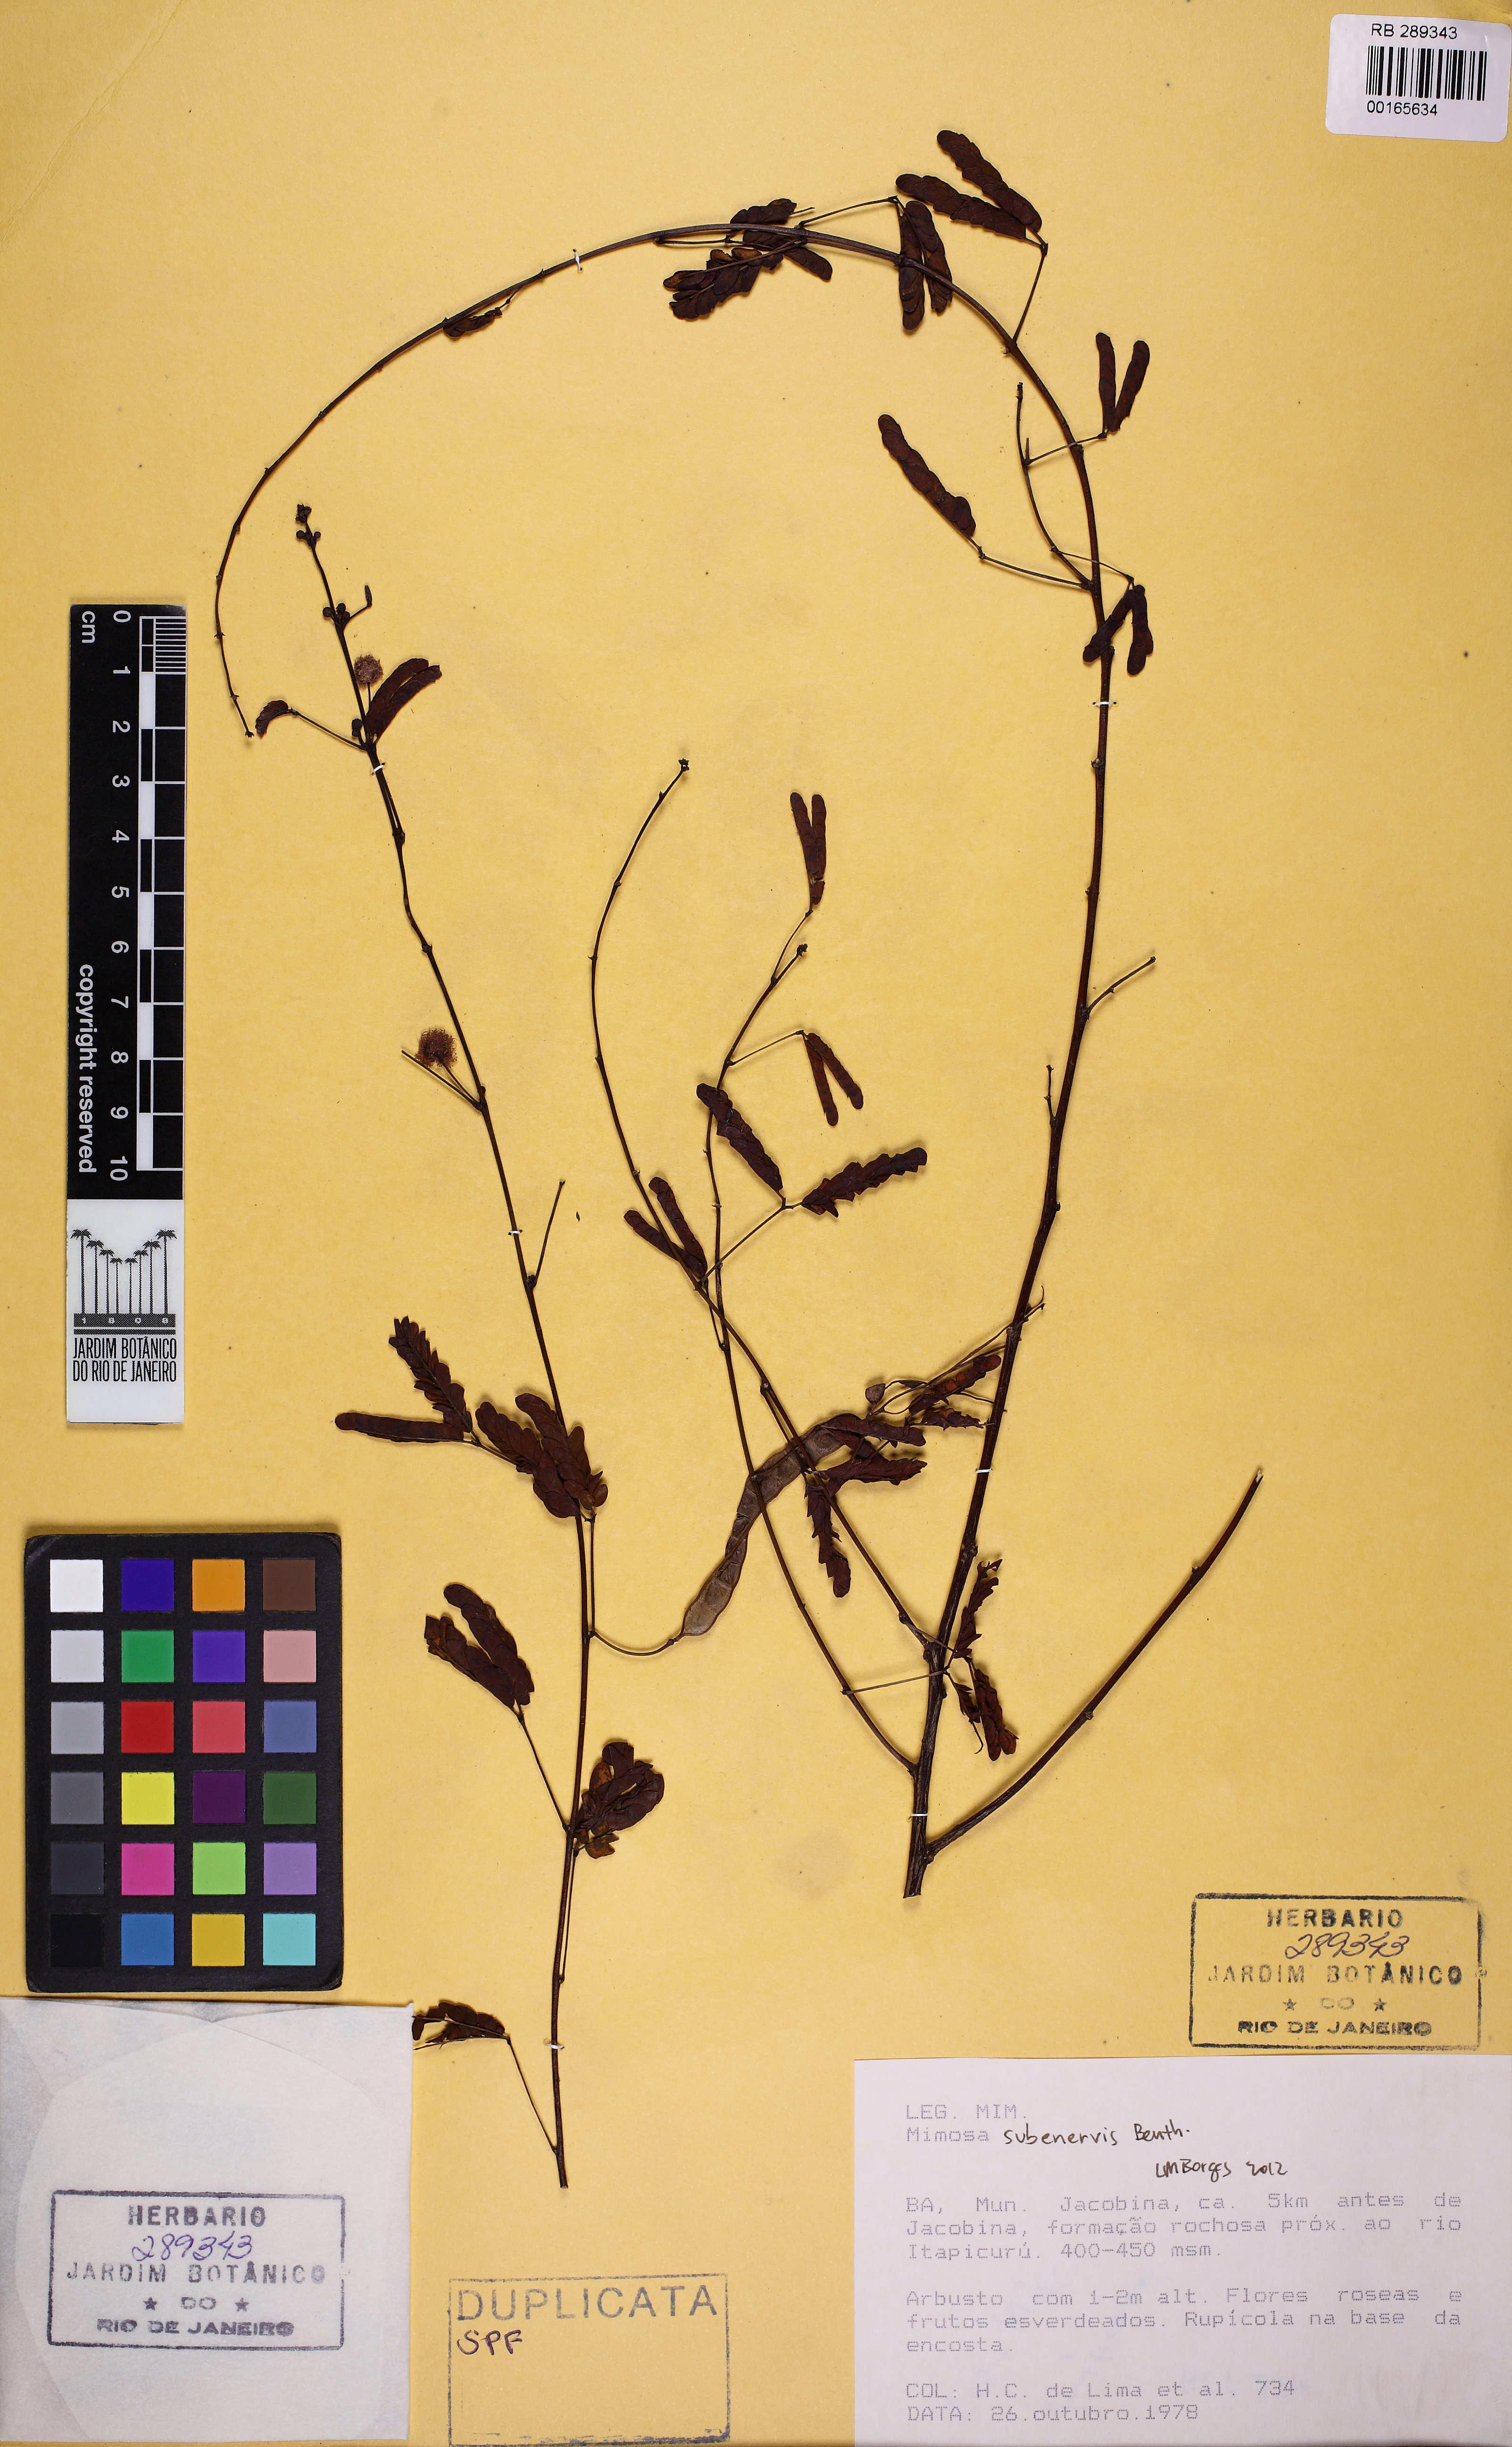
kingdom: Plantae
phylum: Tracheophyta
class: Magnoliopsida
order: Fabales
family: Fabaceae
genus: Mimosa
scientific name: Mimosa subenervis
